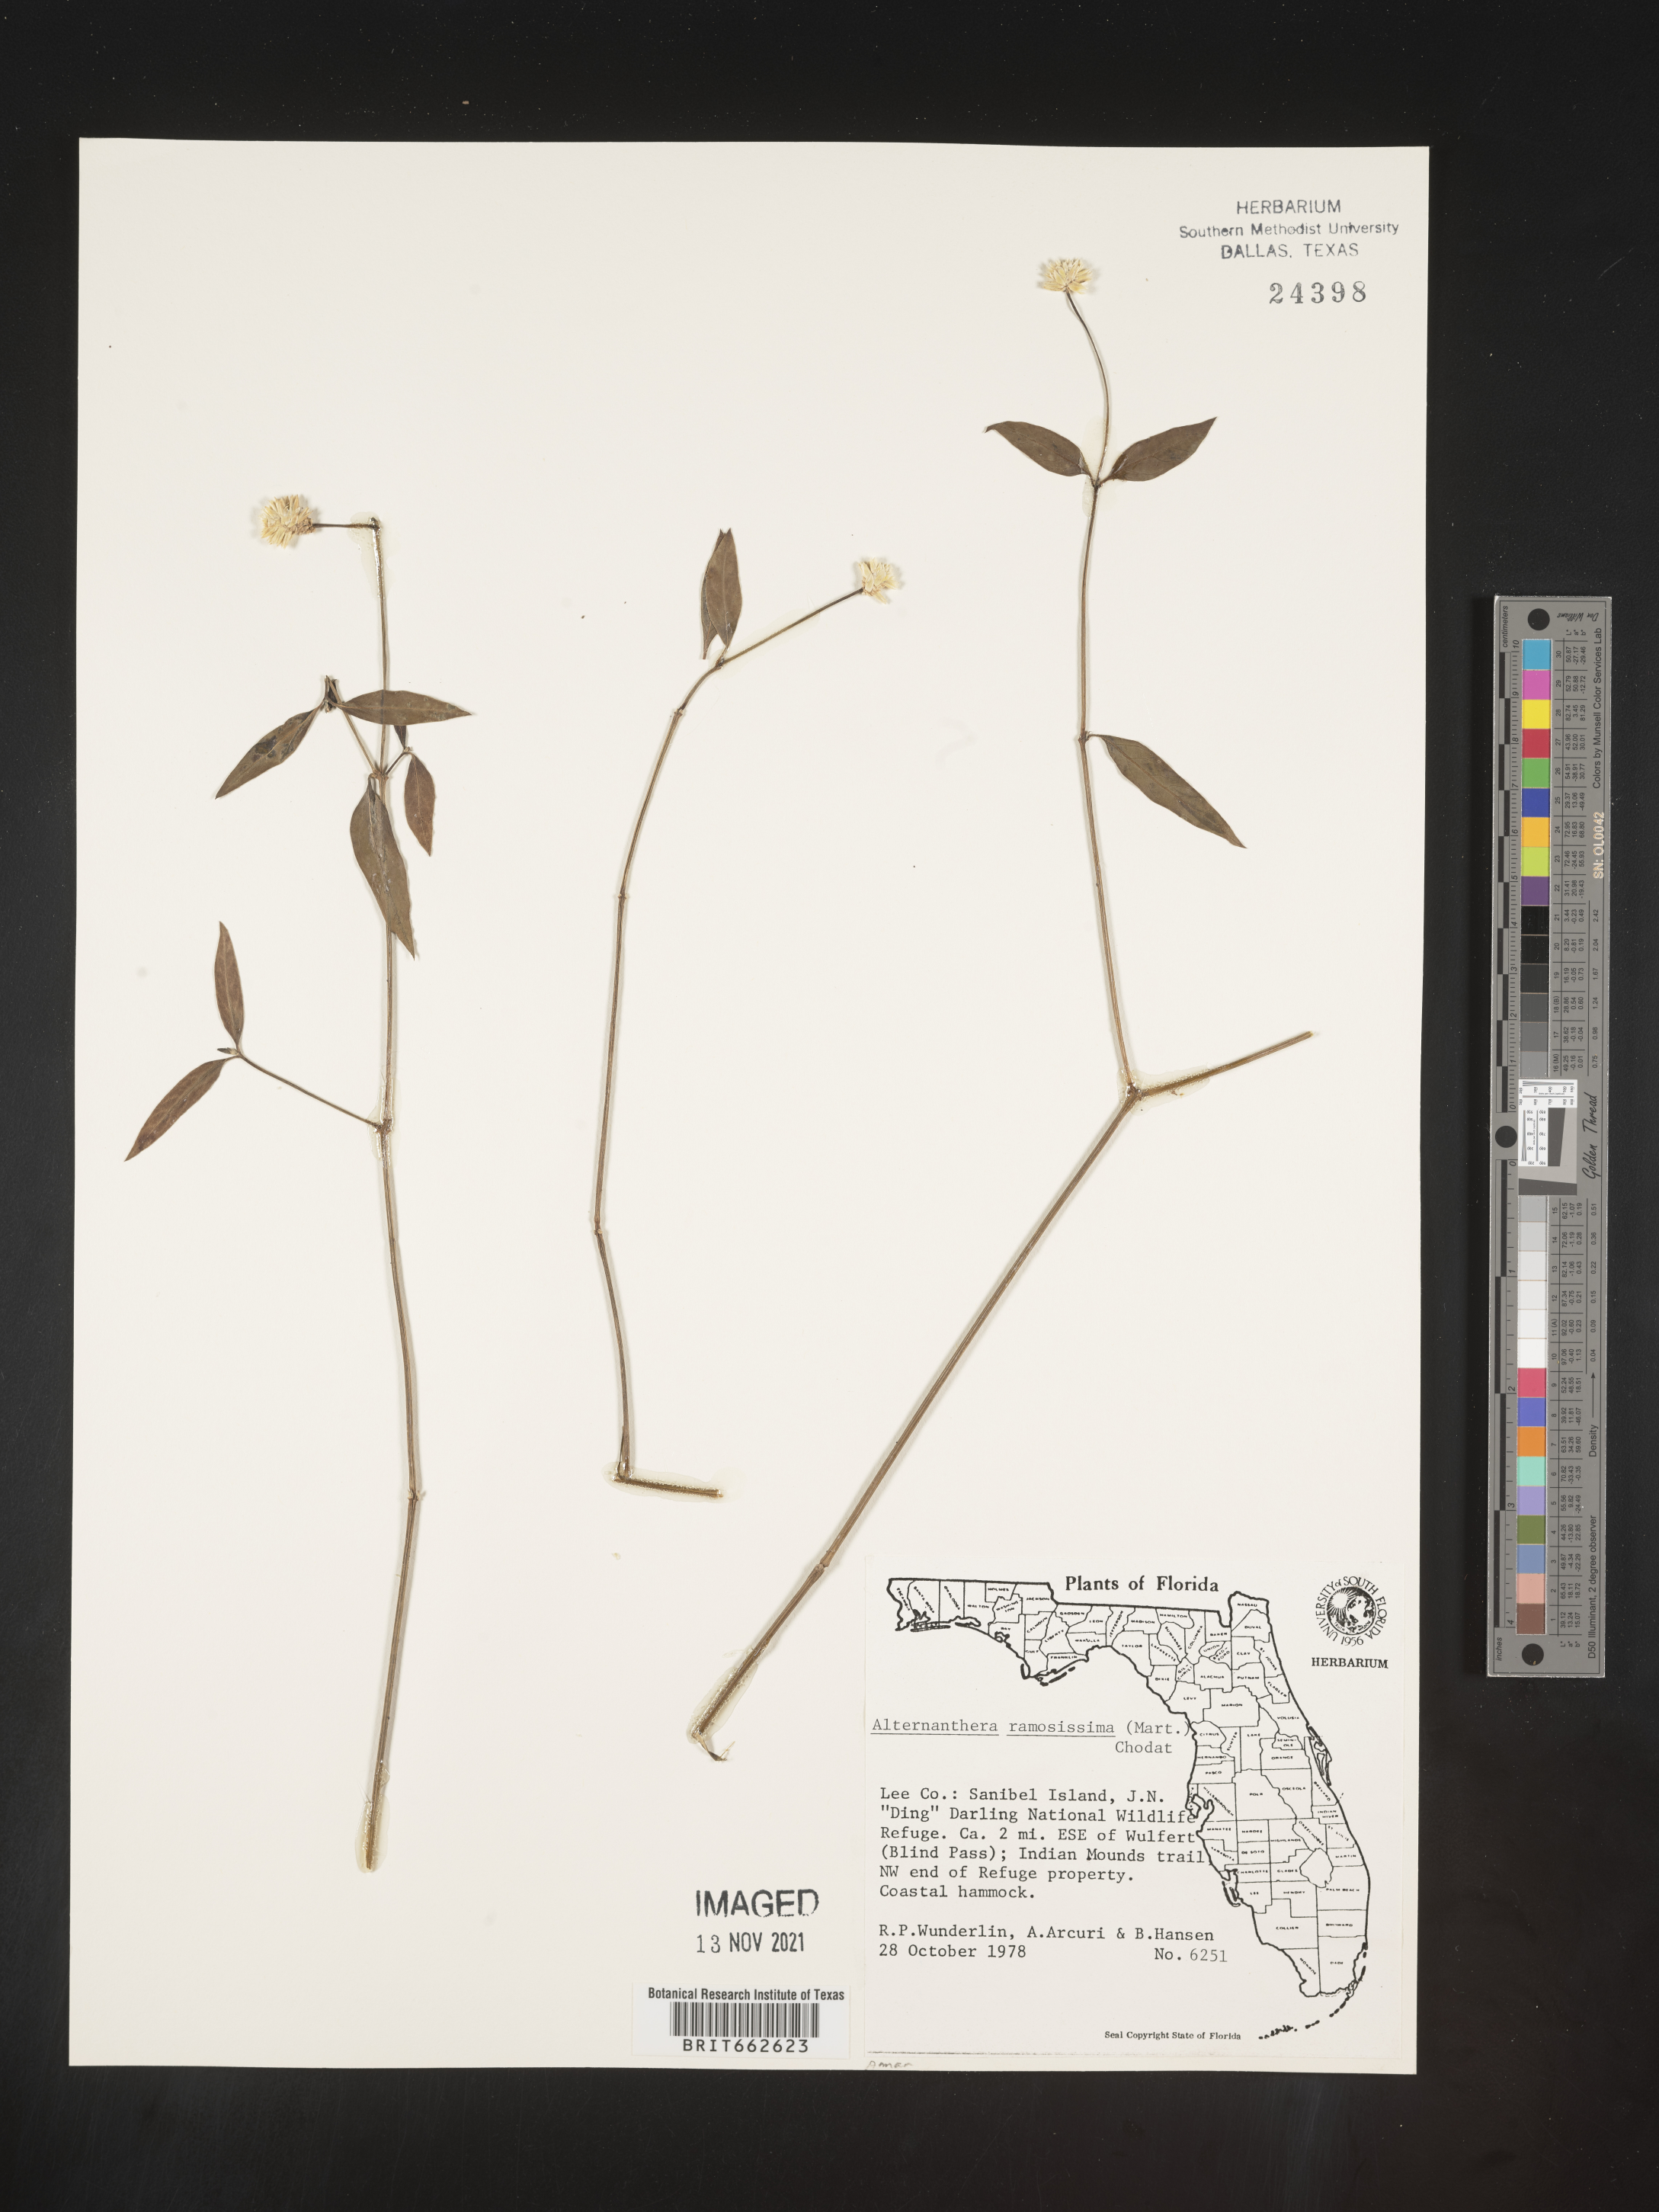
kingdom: Plantae
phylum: Tracheophyta
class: Magnoliopsida
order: Caryophyllales
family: Amaranthaceae
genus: Alternanthera
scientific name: Alternanthera ramosissima
